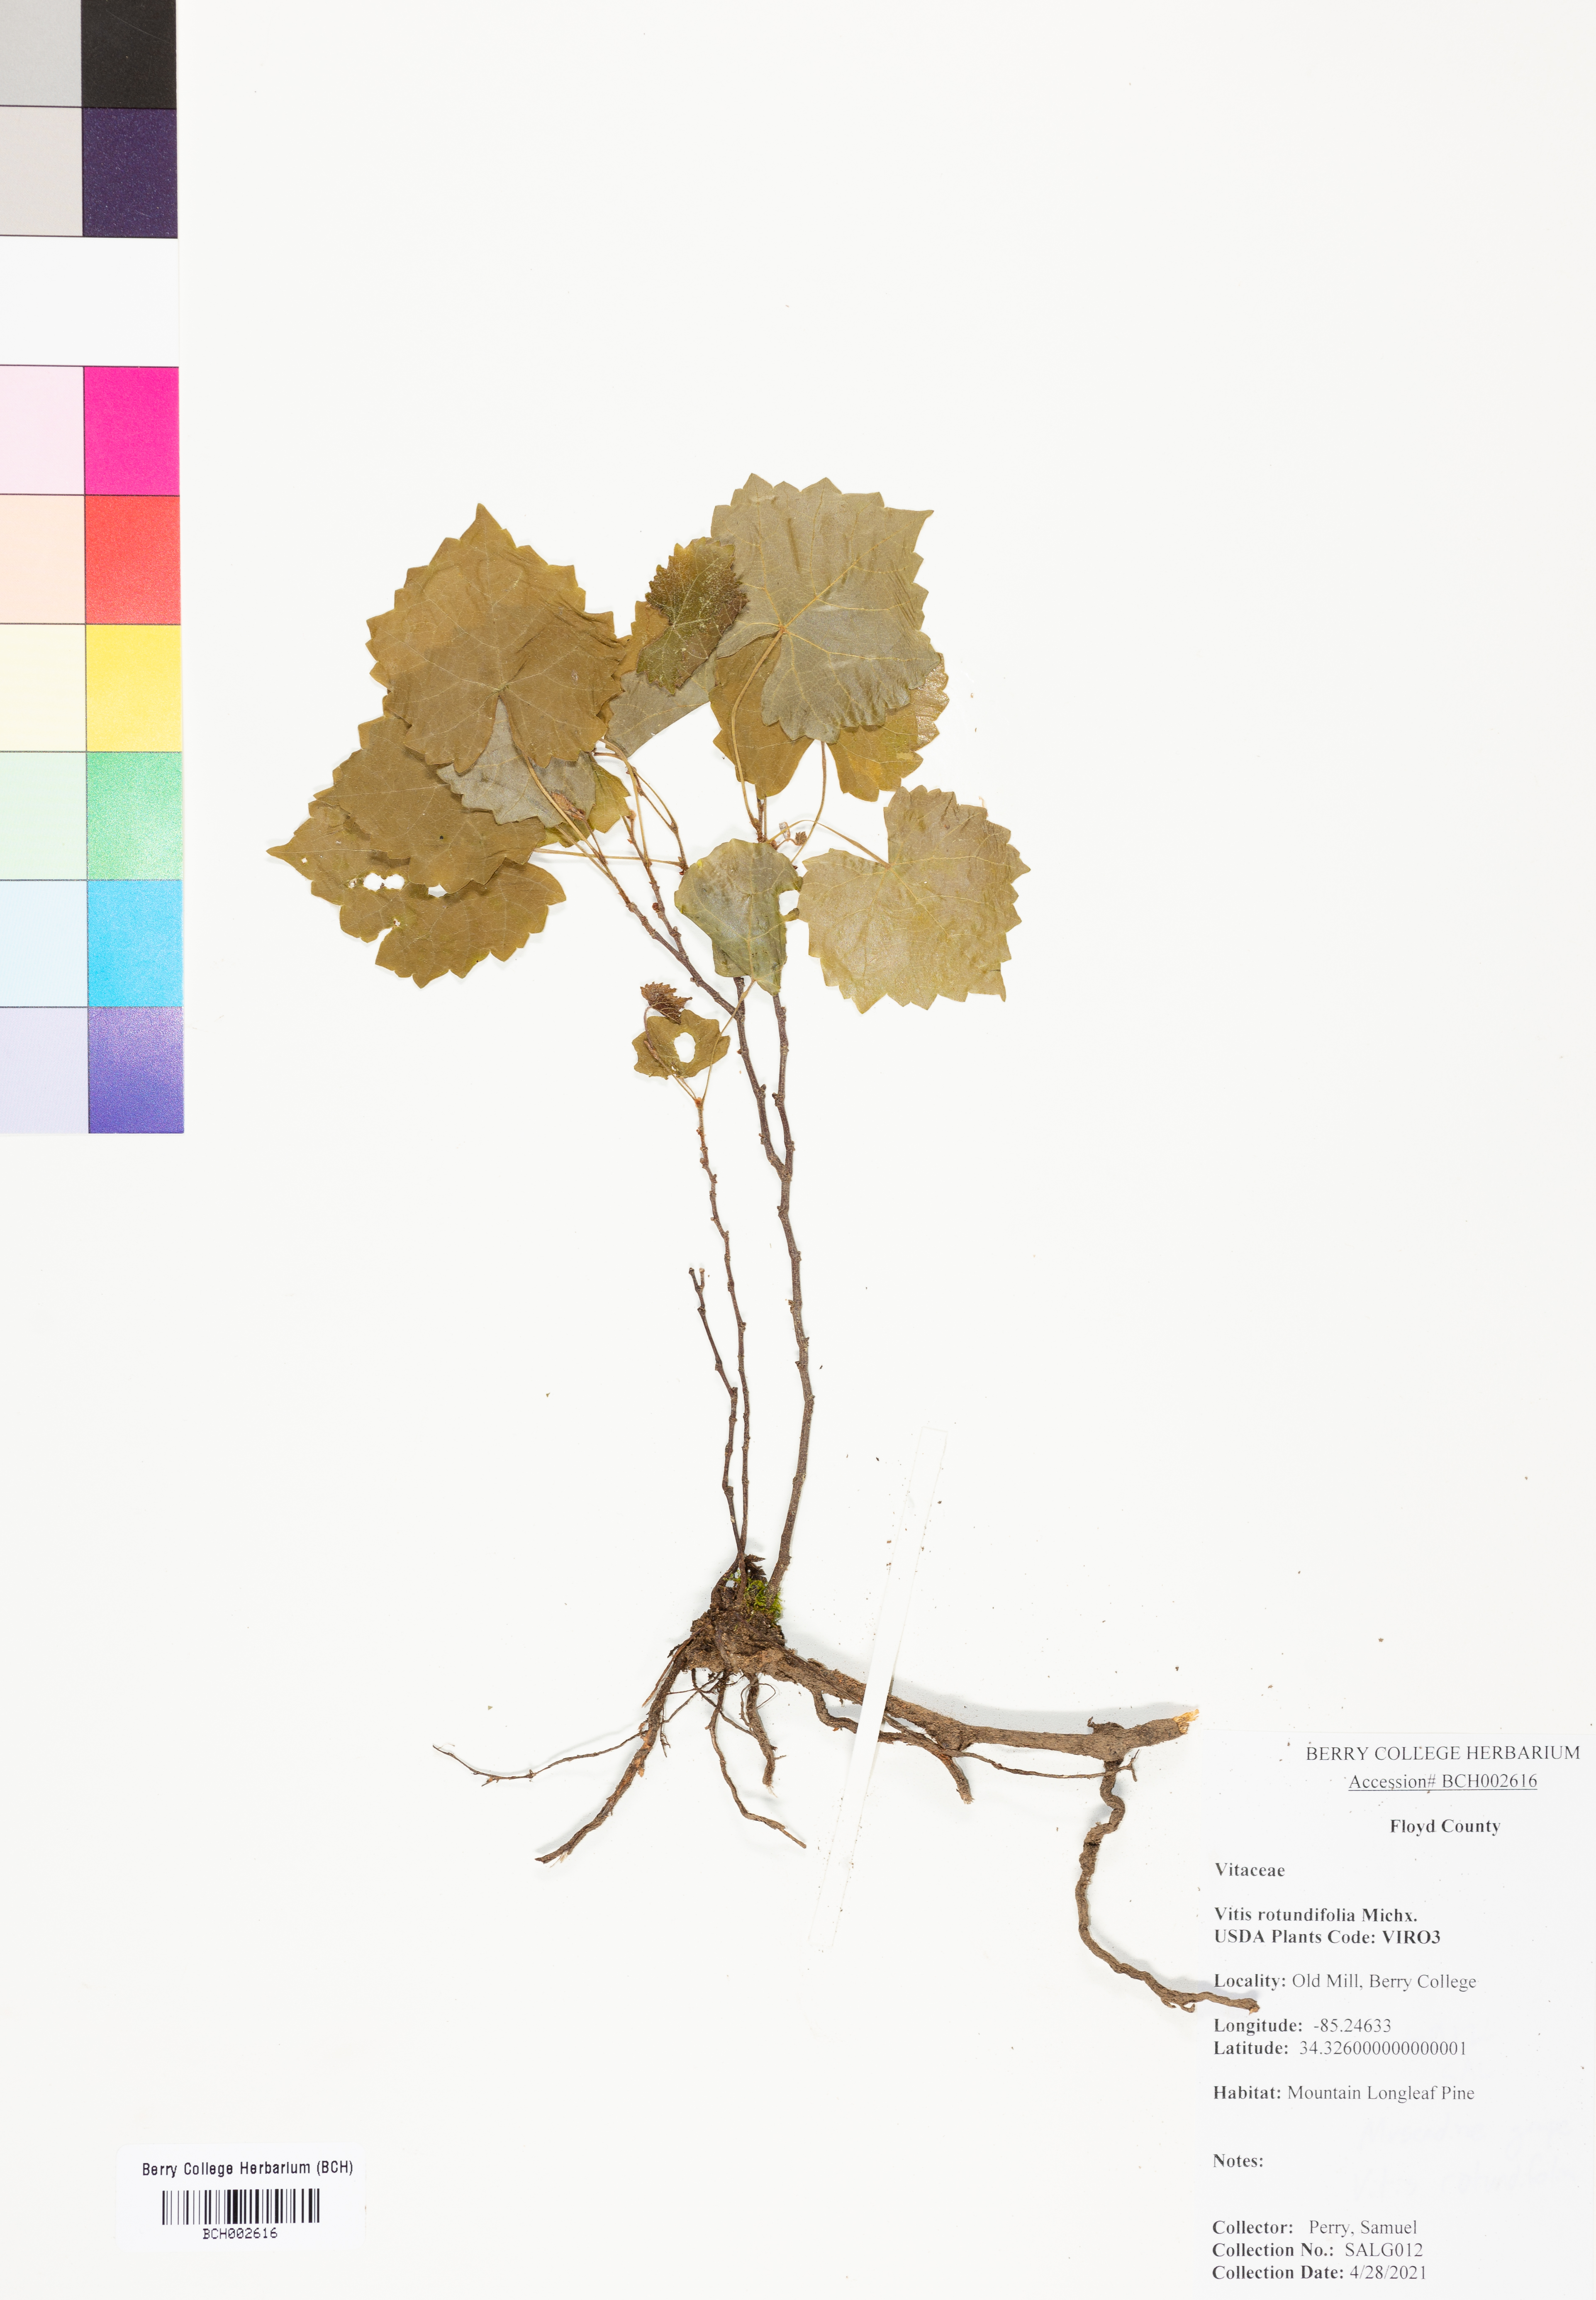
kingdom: Plantae
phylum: Tracheophyta
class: Magnoliopsida
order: Vitales
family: Vitaceae
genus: Vitis
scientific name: Vitis rotundifolia
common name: Muscadine grape
